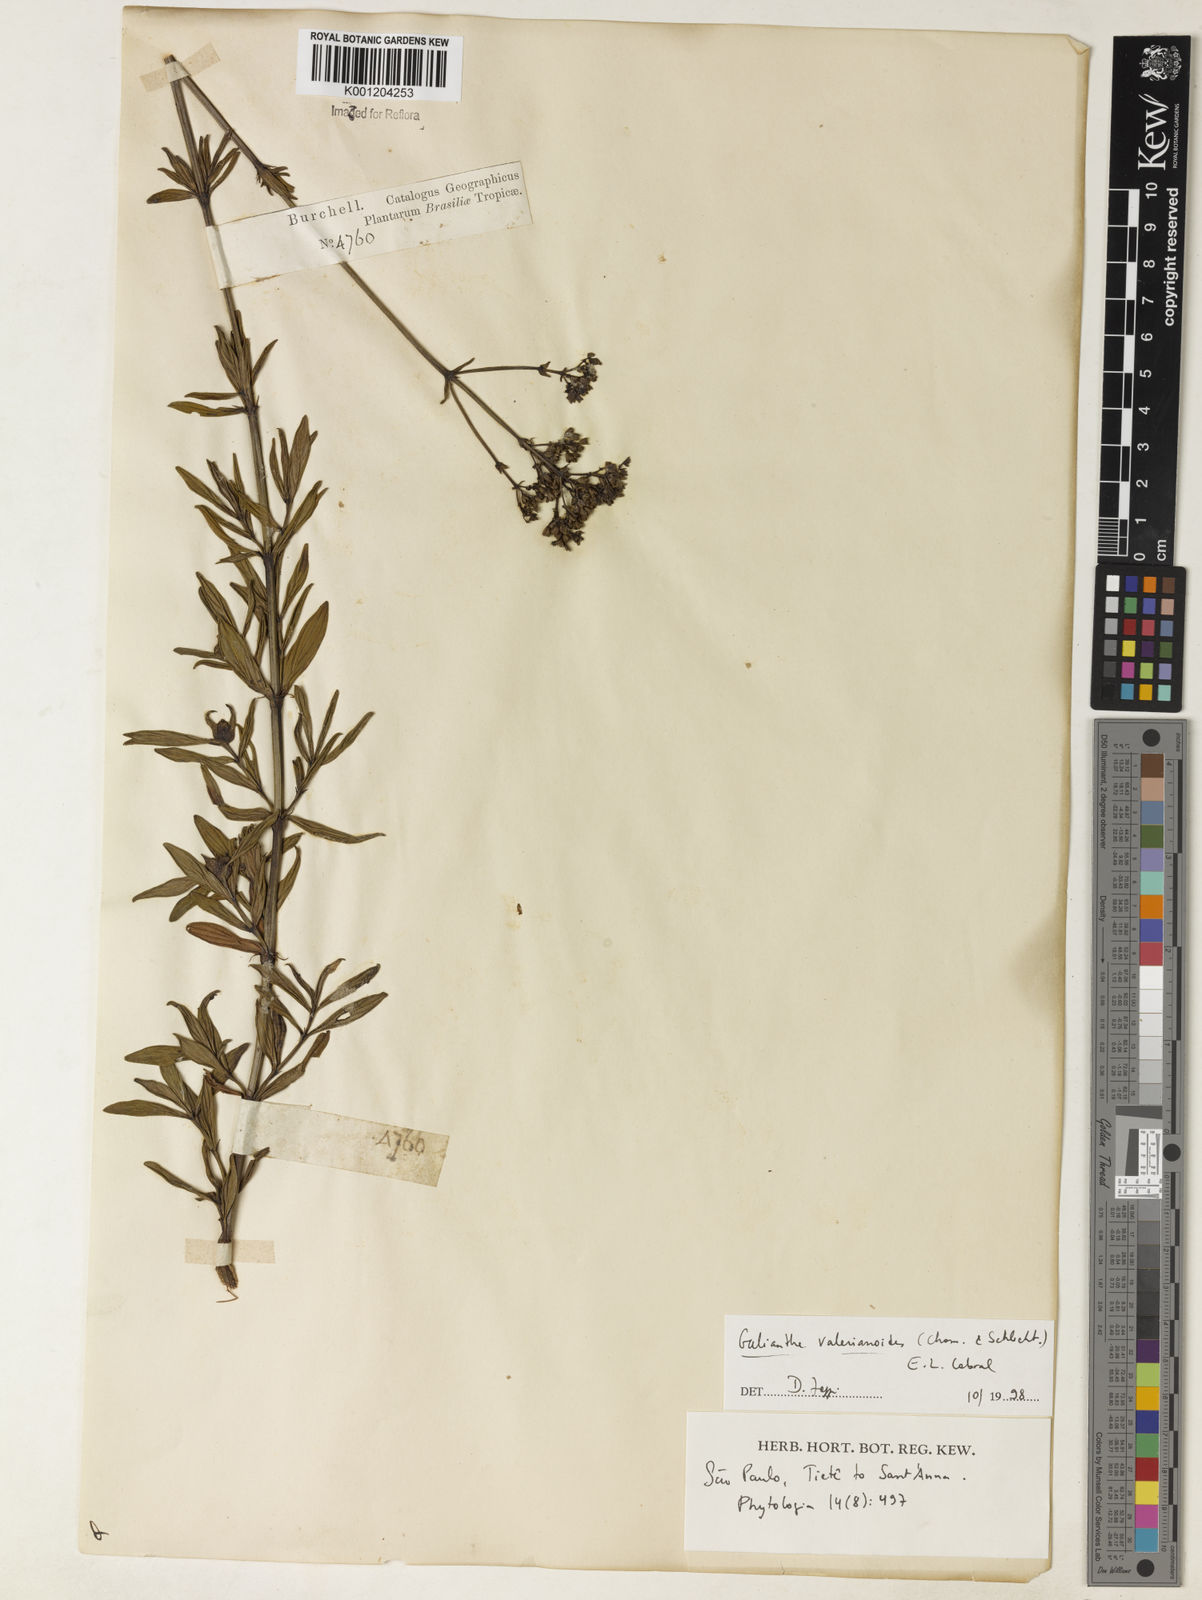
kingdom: Plantae
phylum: Tracheophyta
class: Magnoliopsida
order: Gentianales
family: Rubiaceae
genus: Galianthe
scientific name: Galianthe valerianoides
